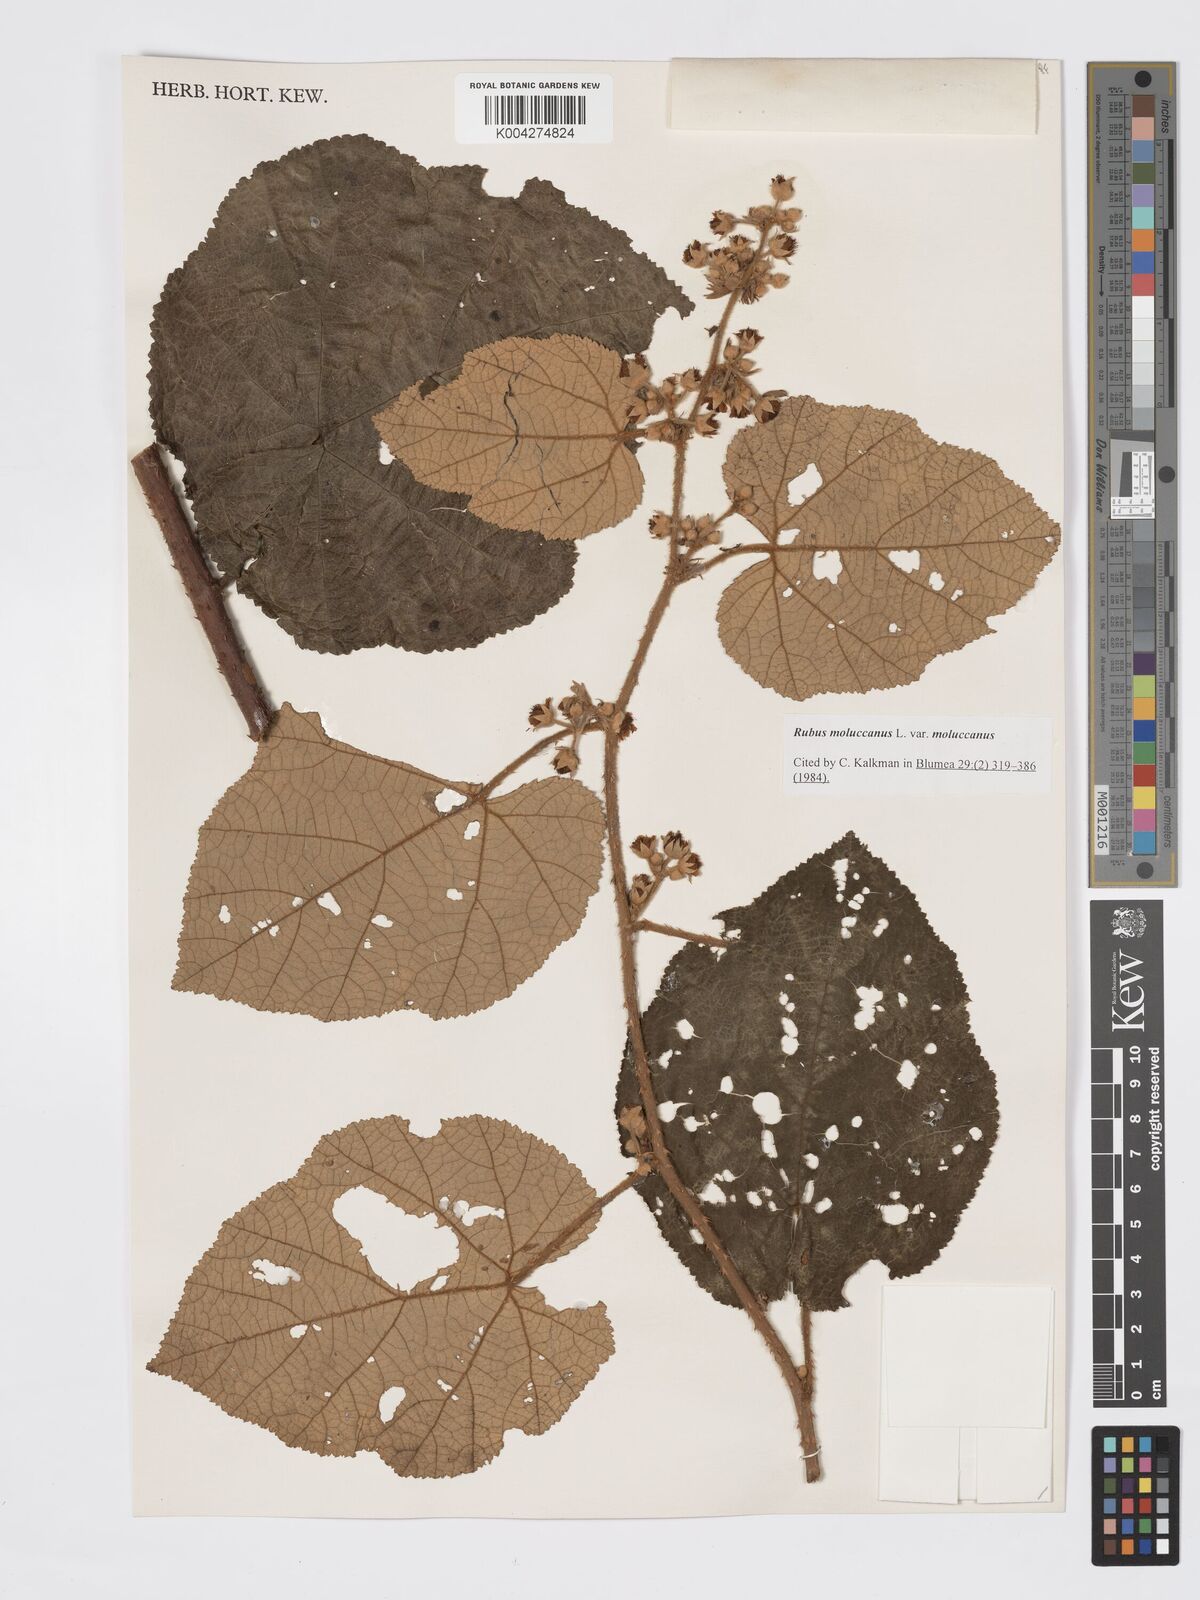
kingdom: Plantae
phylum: Tracheophyta
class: Magnoliopsida
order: Rosales
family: Rosaceae
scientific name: Rosaceae
